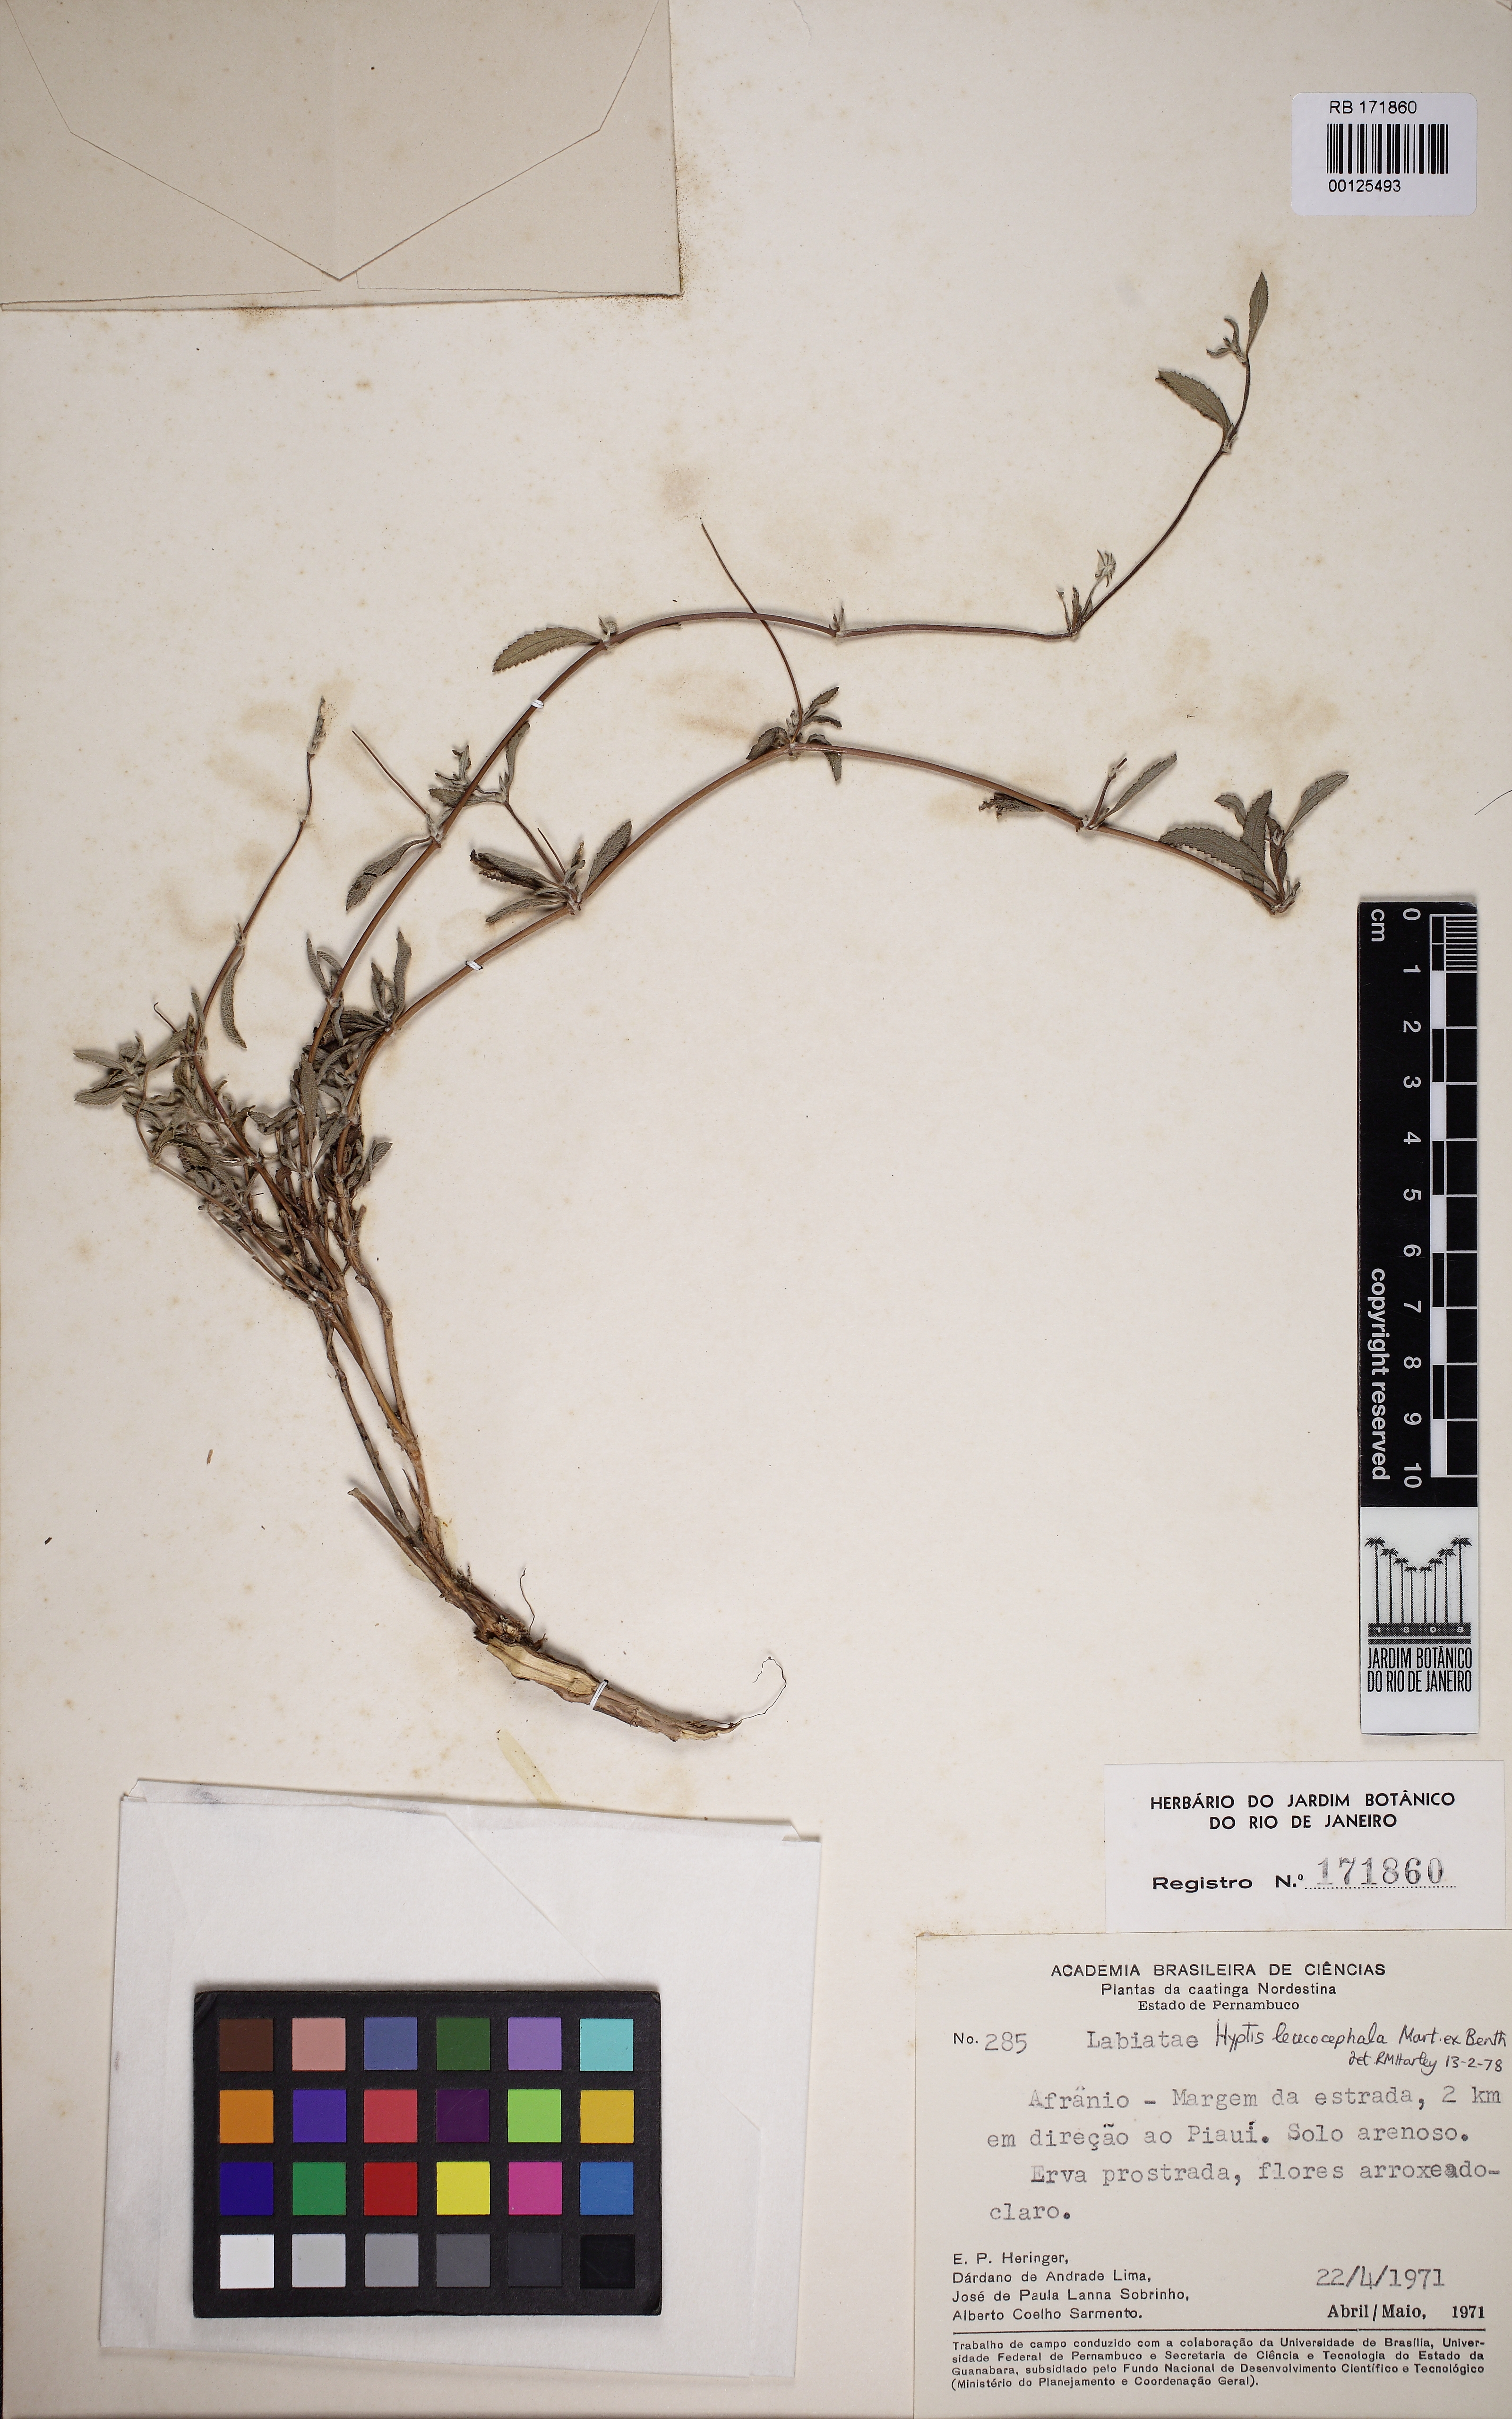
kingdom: Plantae
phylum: Tracheophyta
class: Magnoliopsida
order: Lamiales
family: Lamiaceae
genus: Martianthus
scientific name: Martianthus leucocephalus
